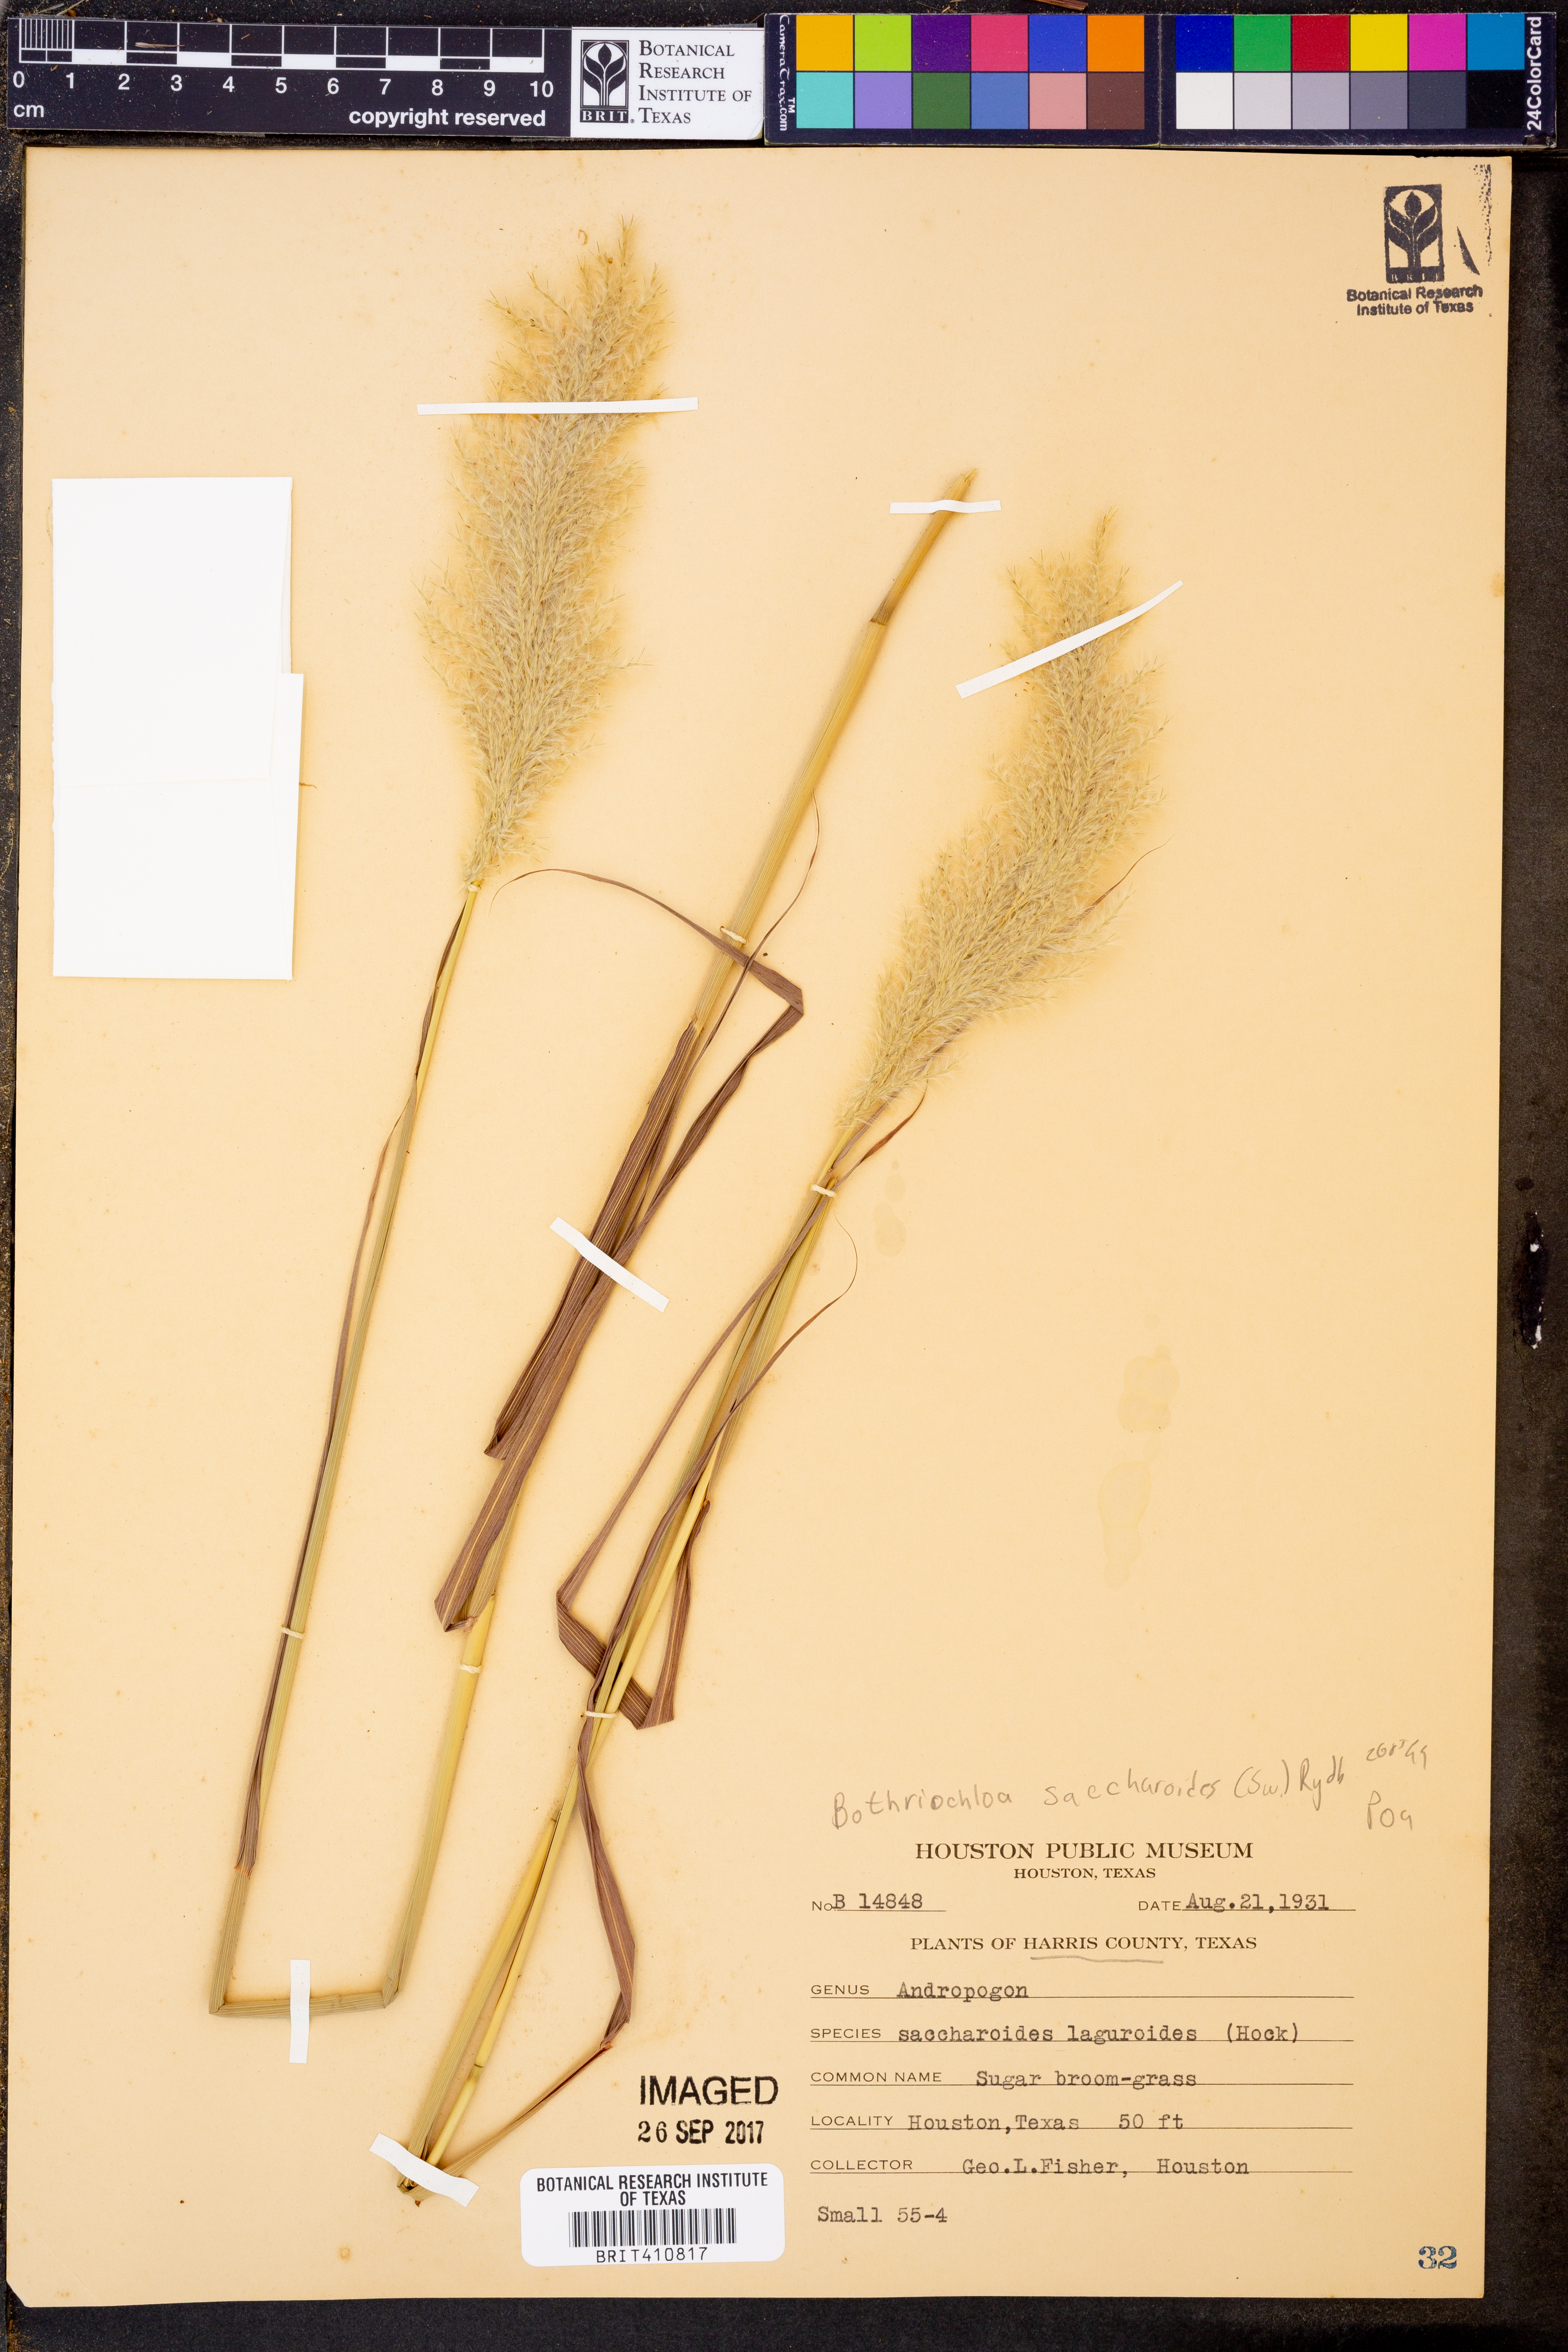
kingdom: Plantae
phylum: Tracheophyta
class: Liliopsida
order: Poales
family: Poaceae
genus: Bothriochloa
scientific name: Bothriochloa saccharoides
